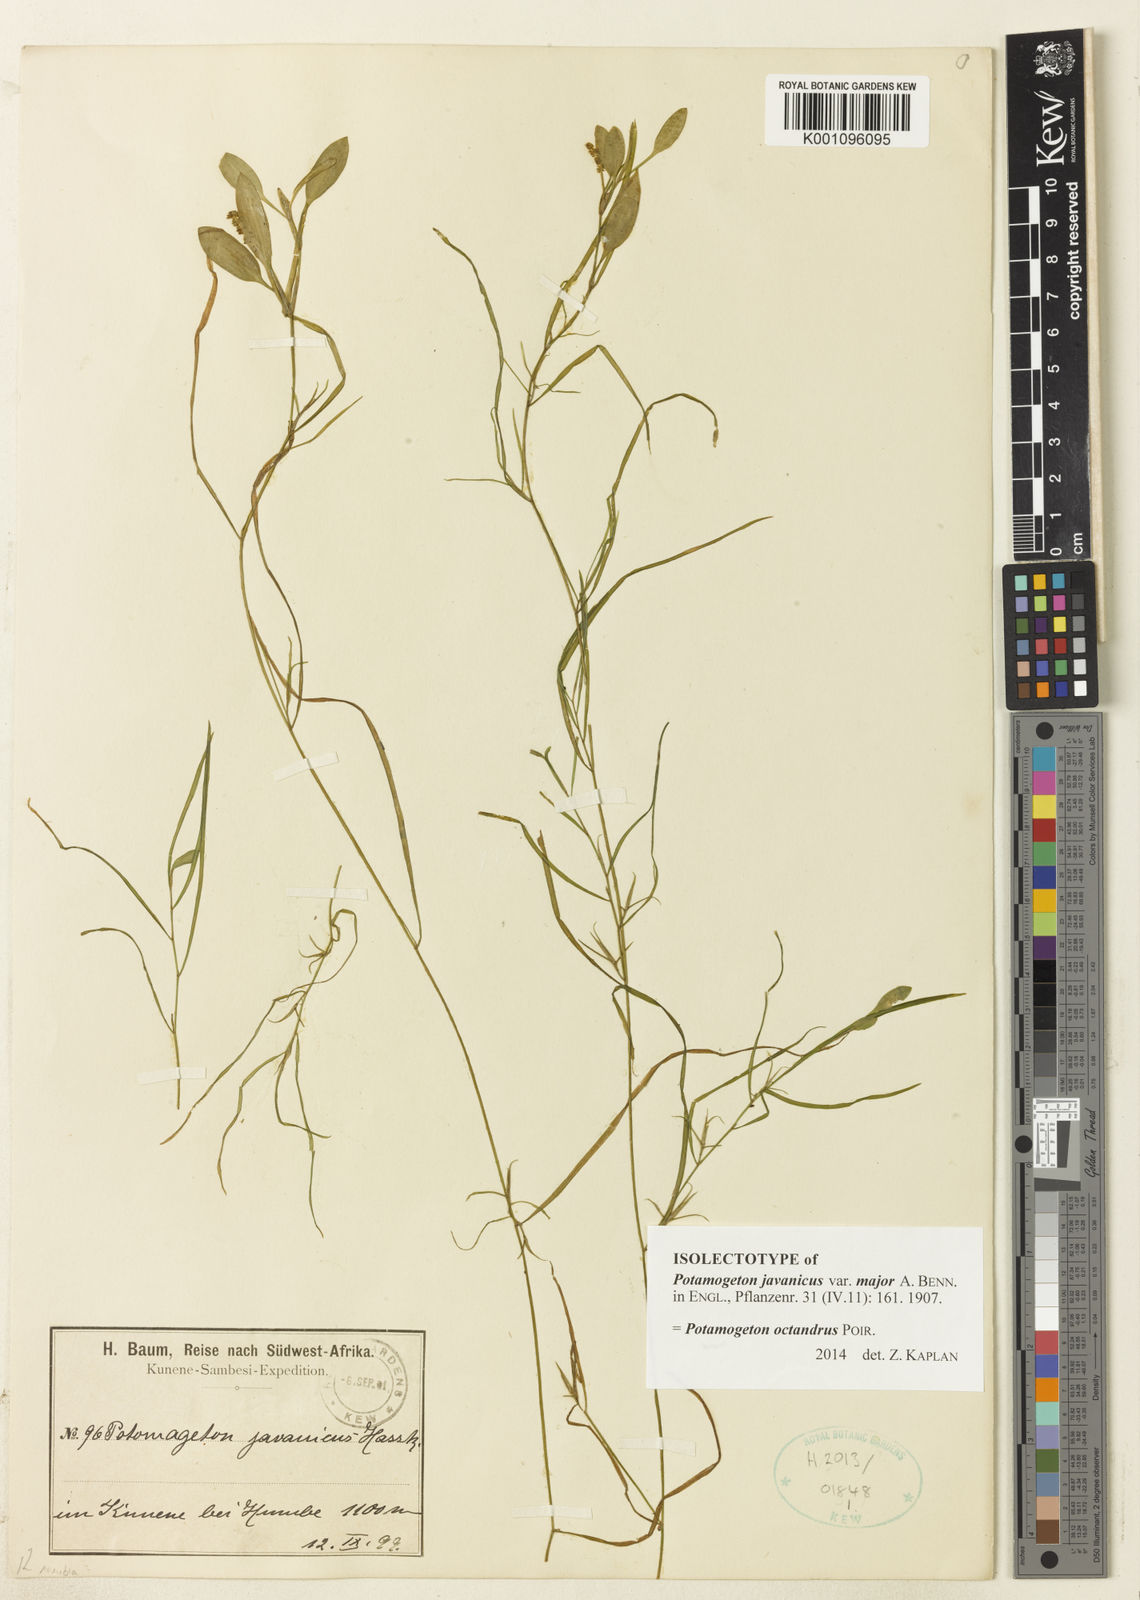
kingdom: Plantae
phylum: Tracheophyta
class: Liliopsida
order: Alismatales
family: Potamogetonaceae
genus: Potamogeton
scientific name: Potamogeton octandrus
